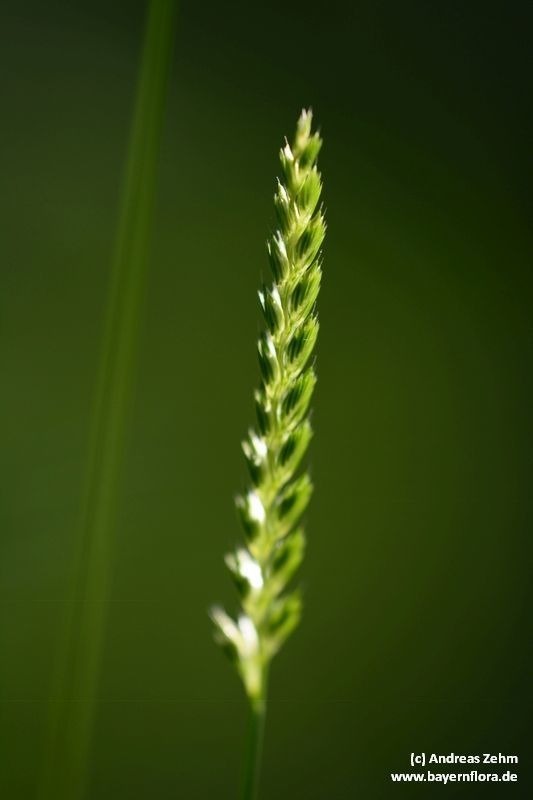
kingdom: Plantae
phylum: Tracheophyta
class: Liliopsida
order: Poales
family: Poaceae
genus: Cynosurus
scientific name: Cynosurus cristatus
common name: Crested dog's-tail
